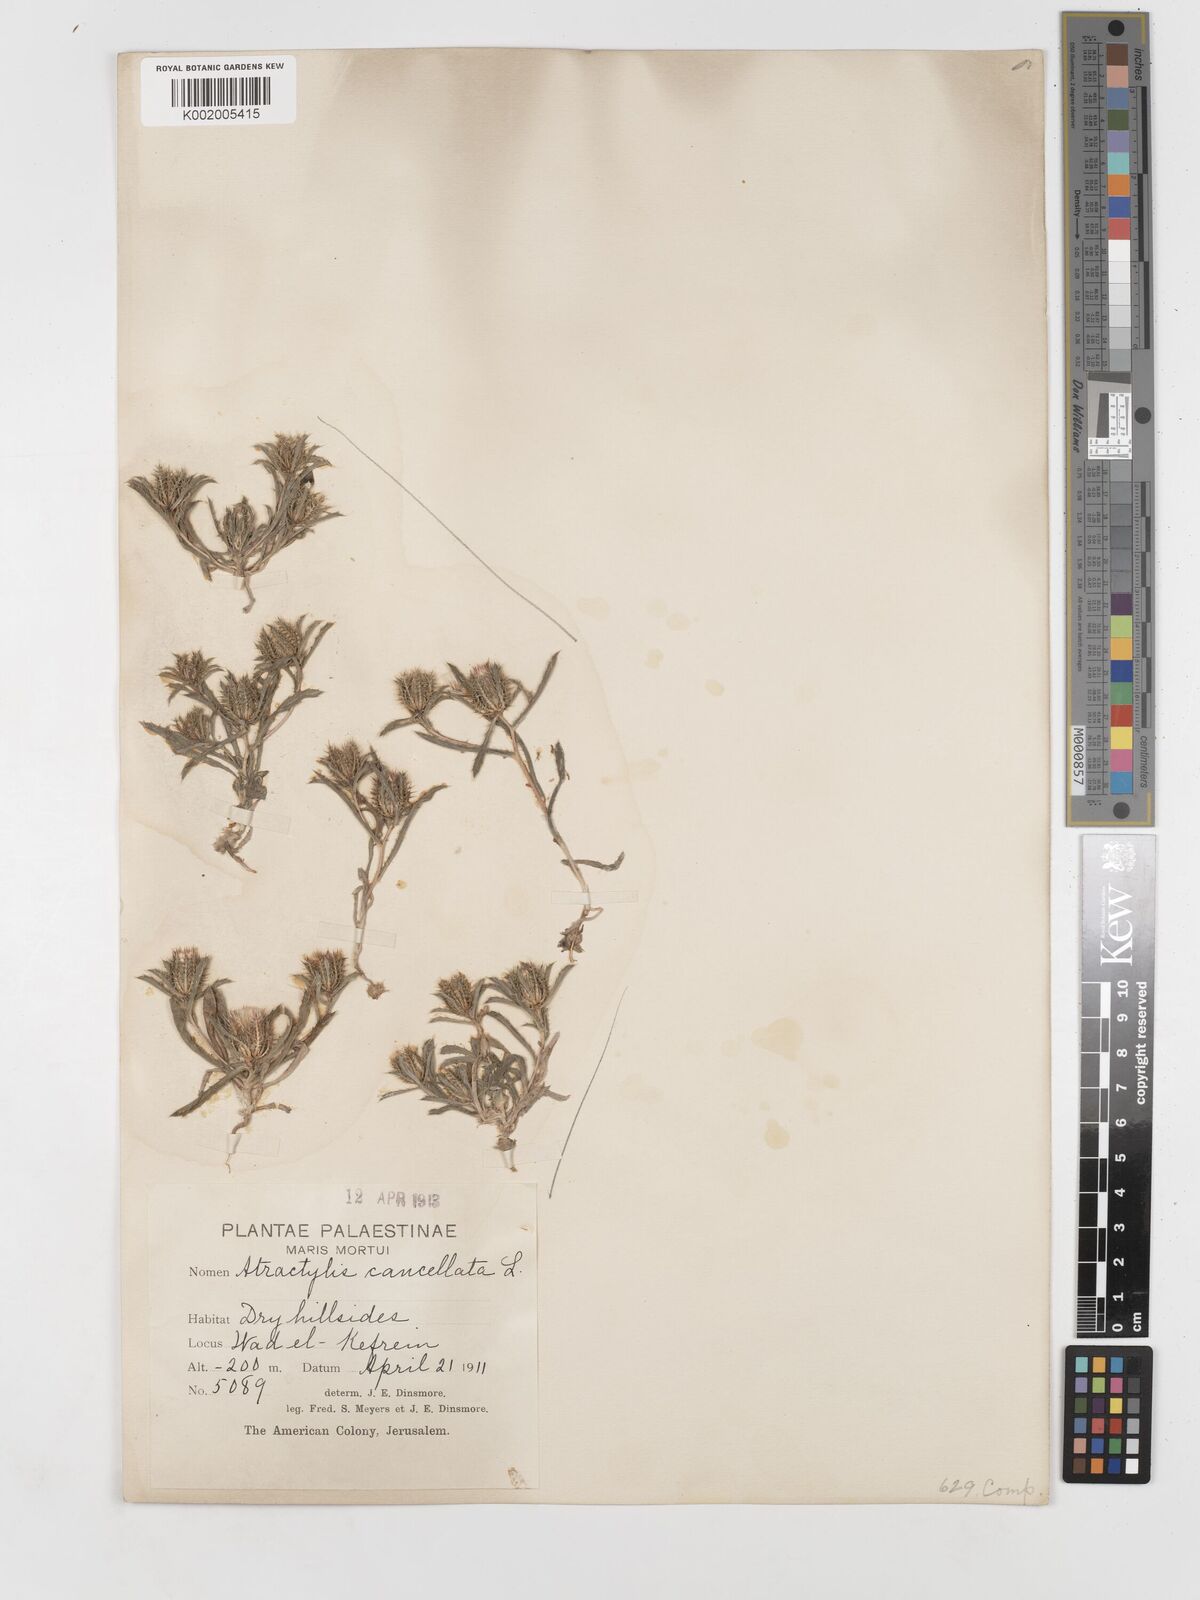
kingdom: Plantae
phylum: Tracheophyta
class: Magnoliopsida
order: Asterales
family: Asteraceae
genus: Atractylis
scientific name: Atractylis cancellata
